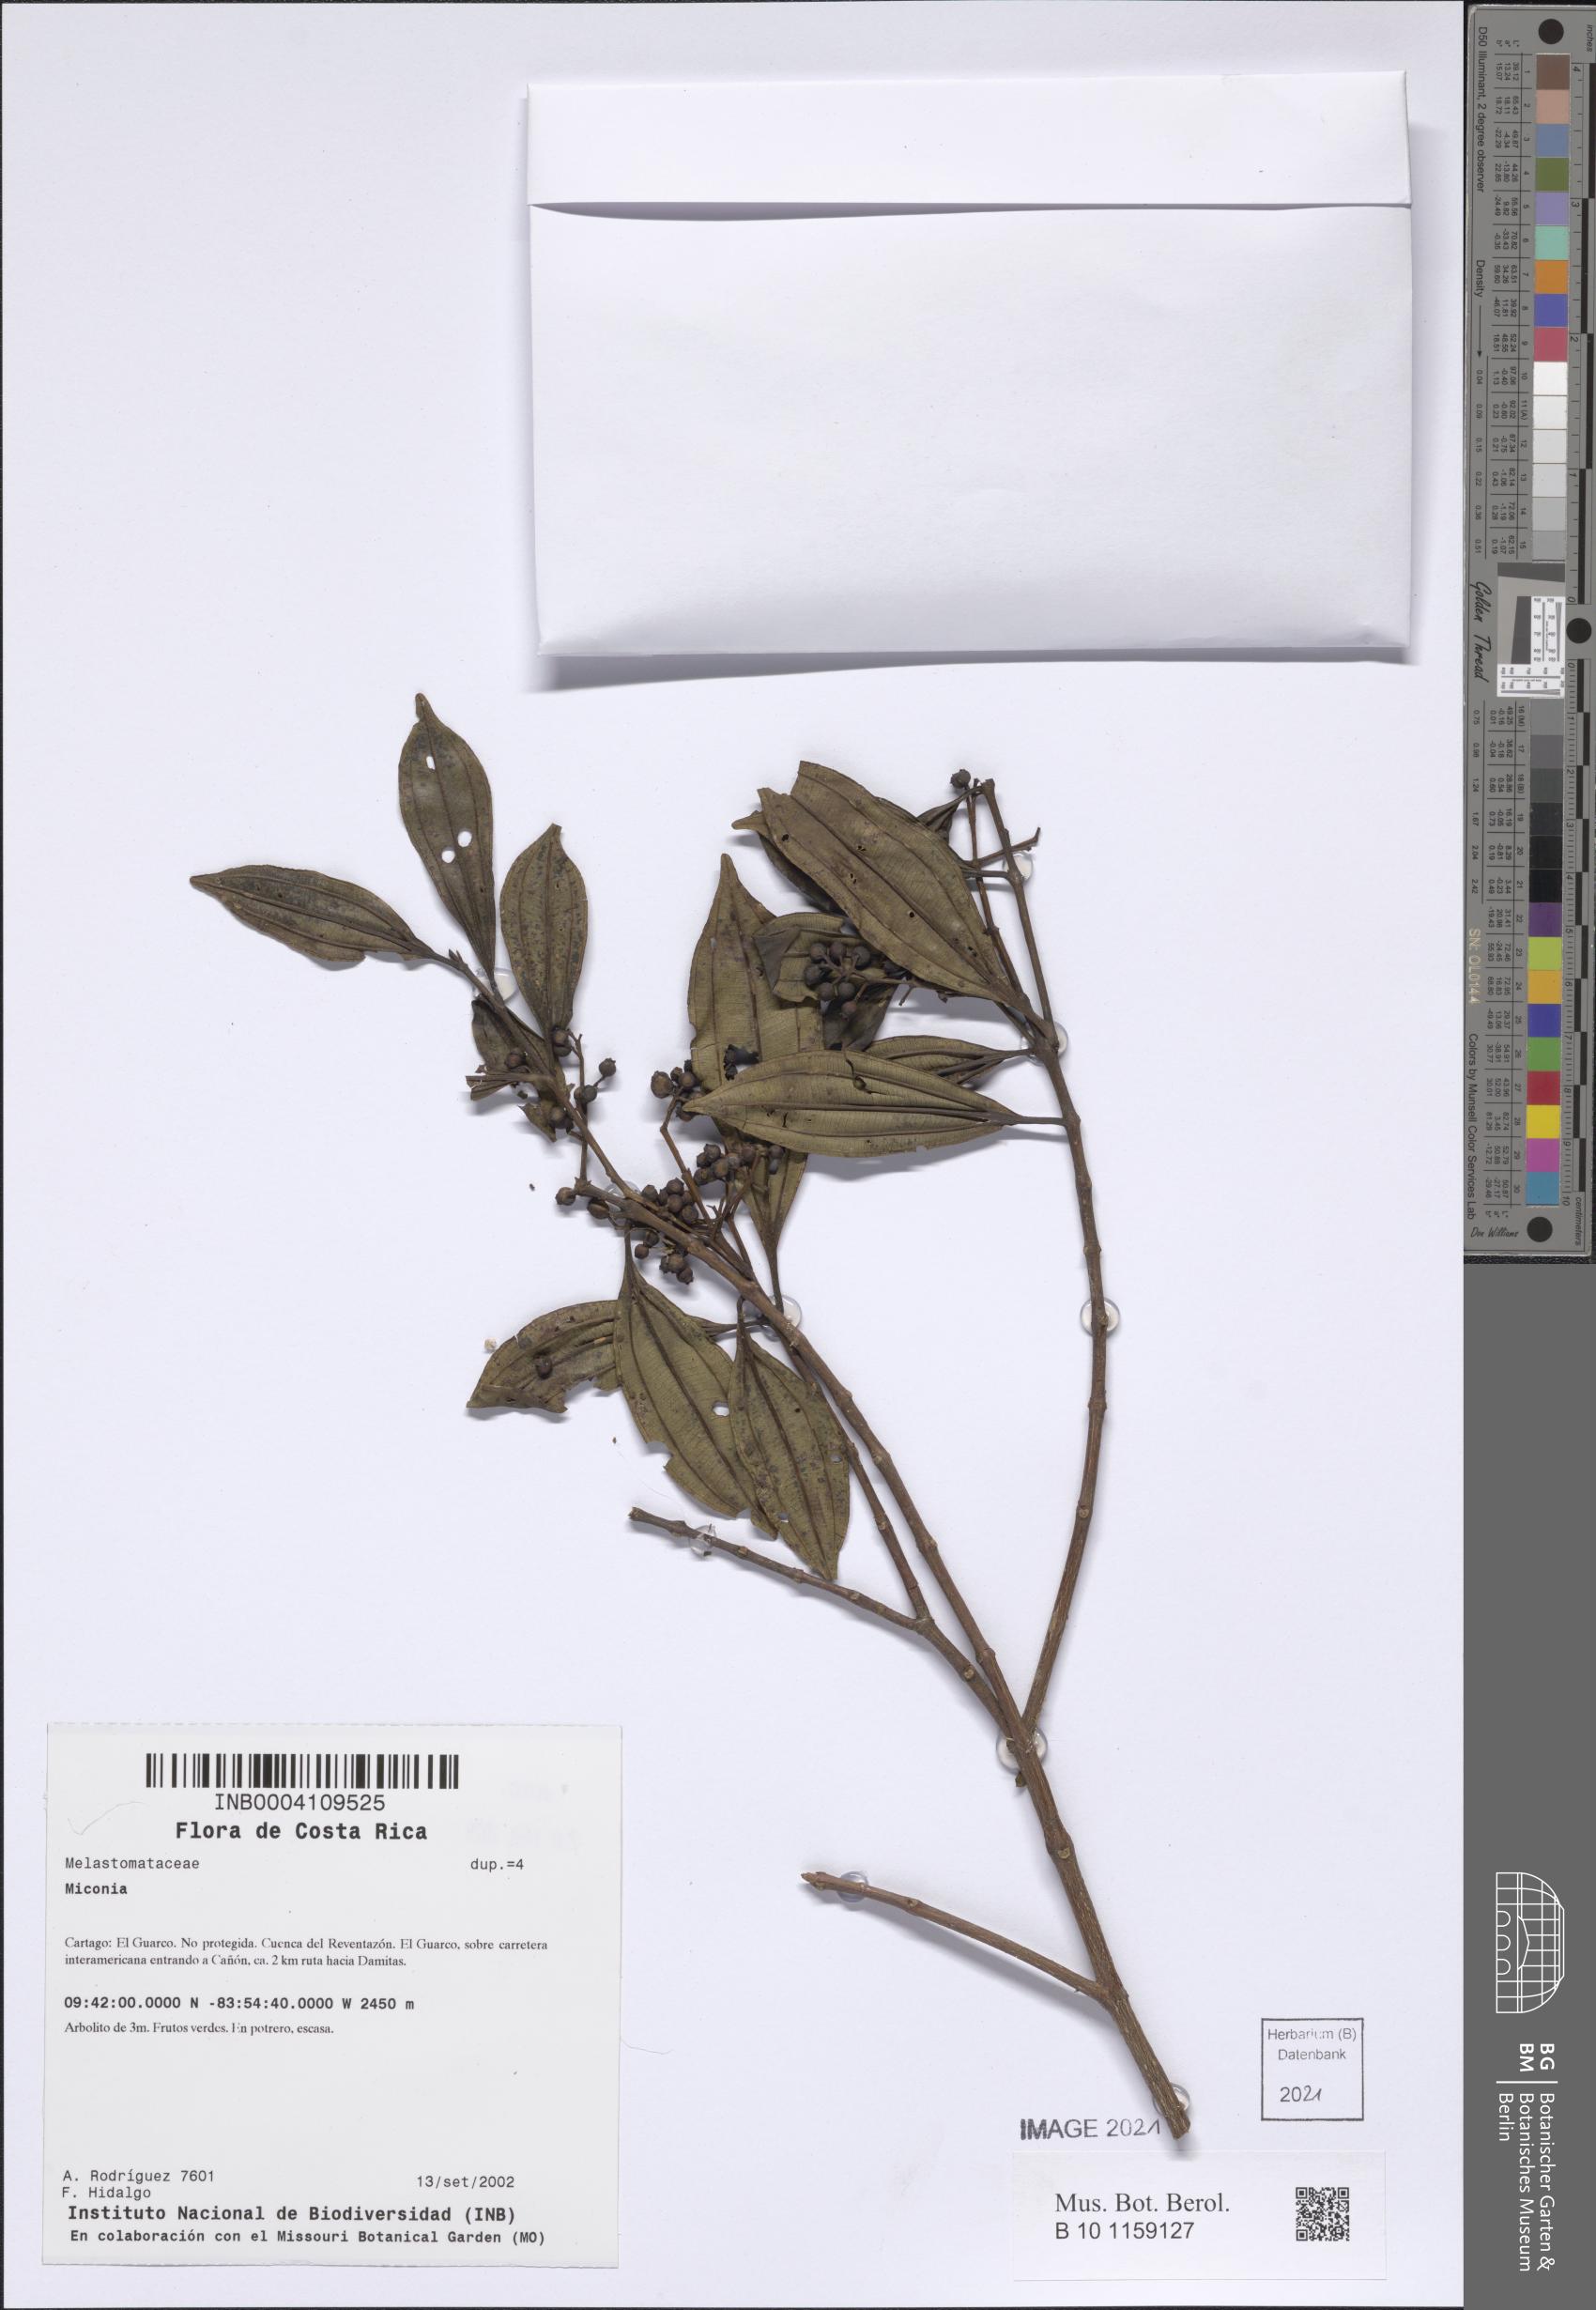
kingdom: Plantae
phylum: Tracheophyta
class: Magnoliopsida
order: Myrtales
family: Melastomataceae
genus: Miconia
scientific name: Miconia
